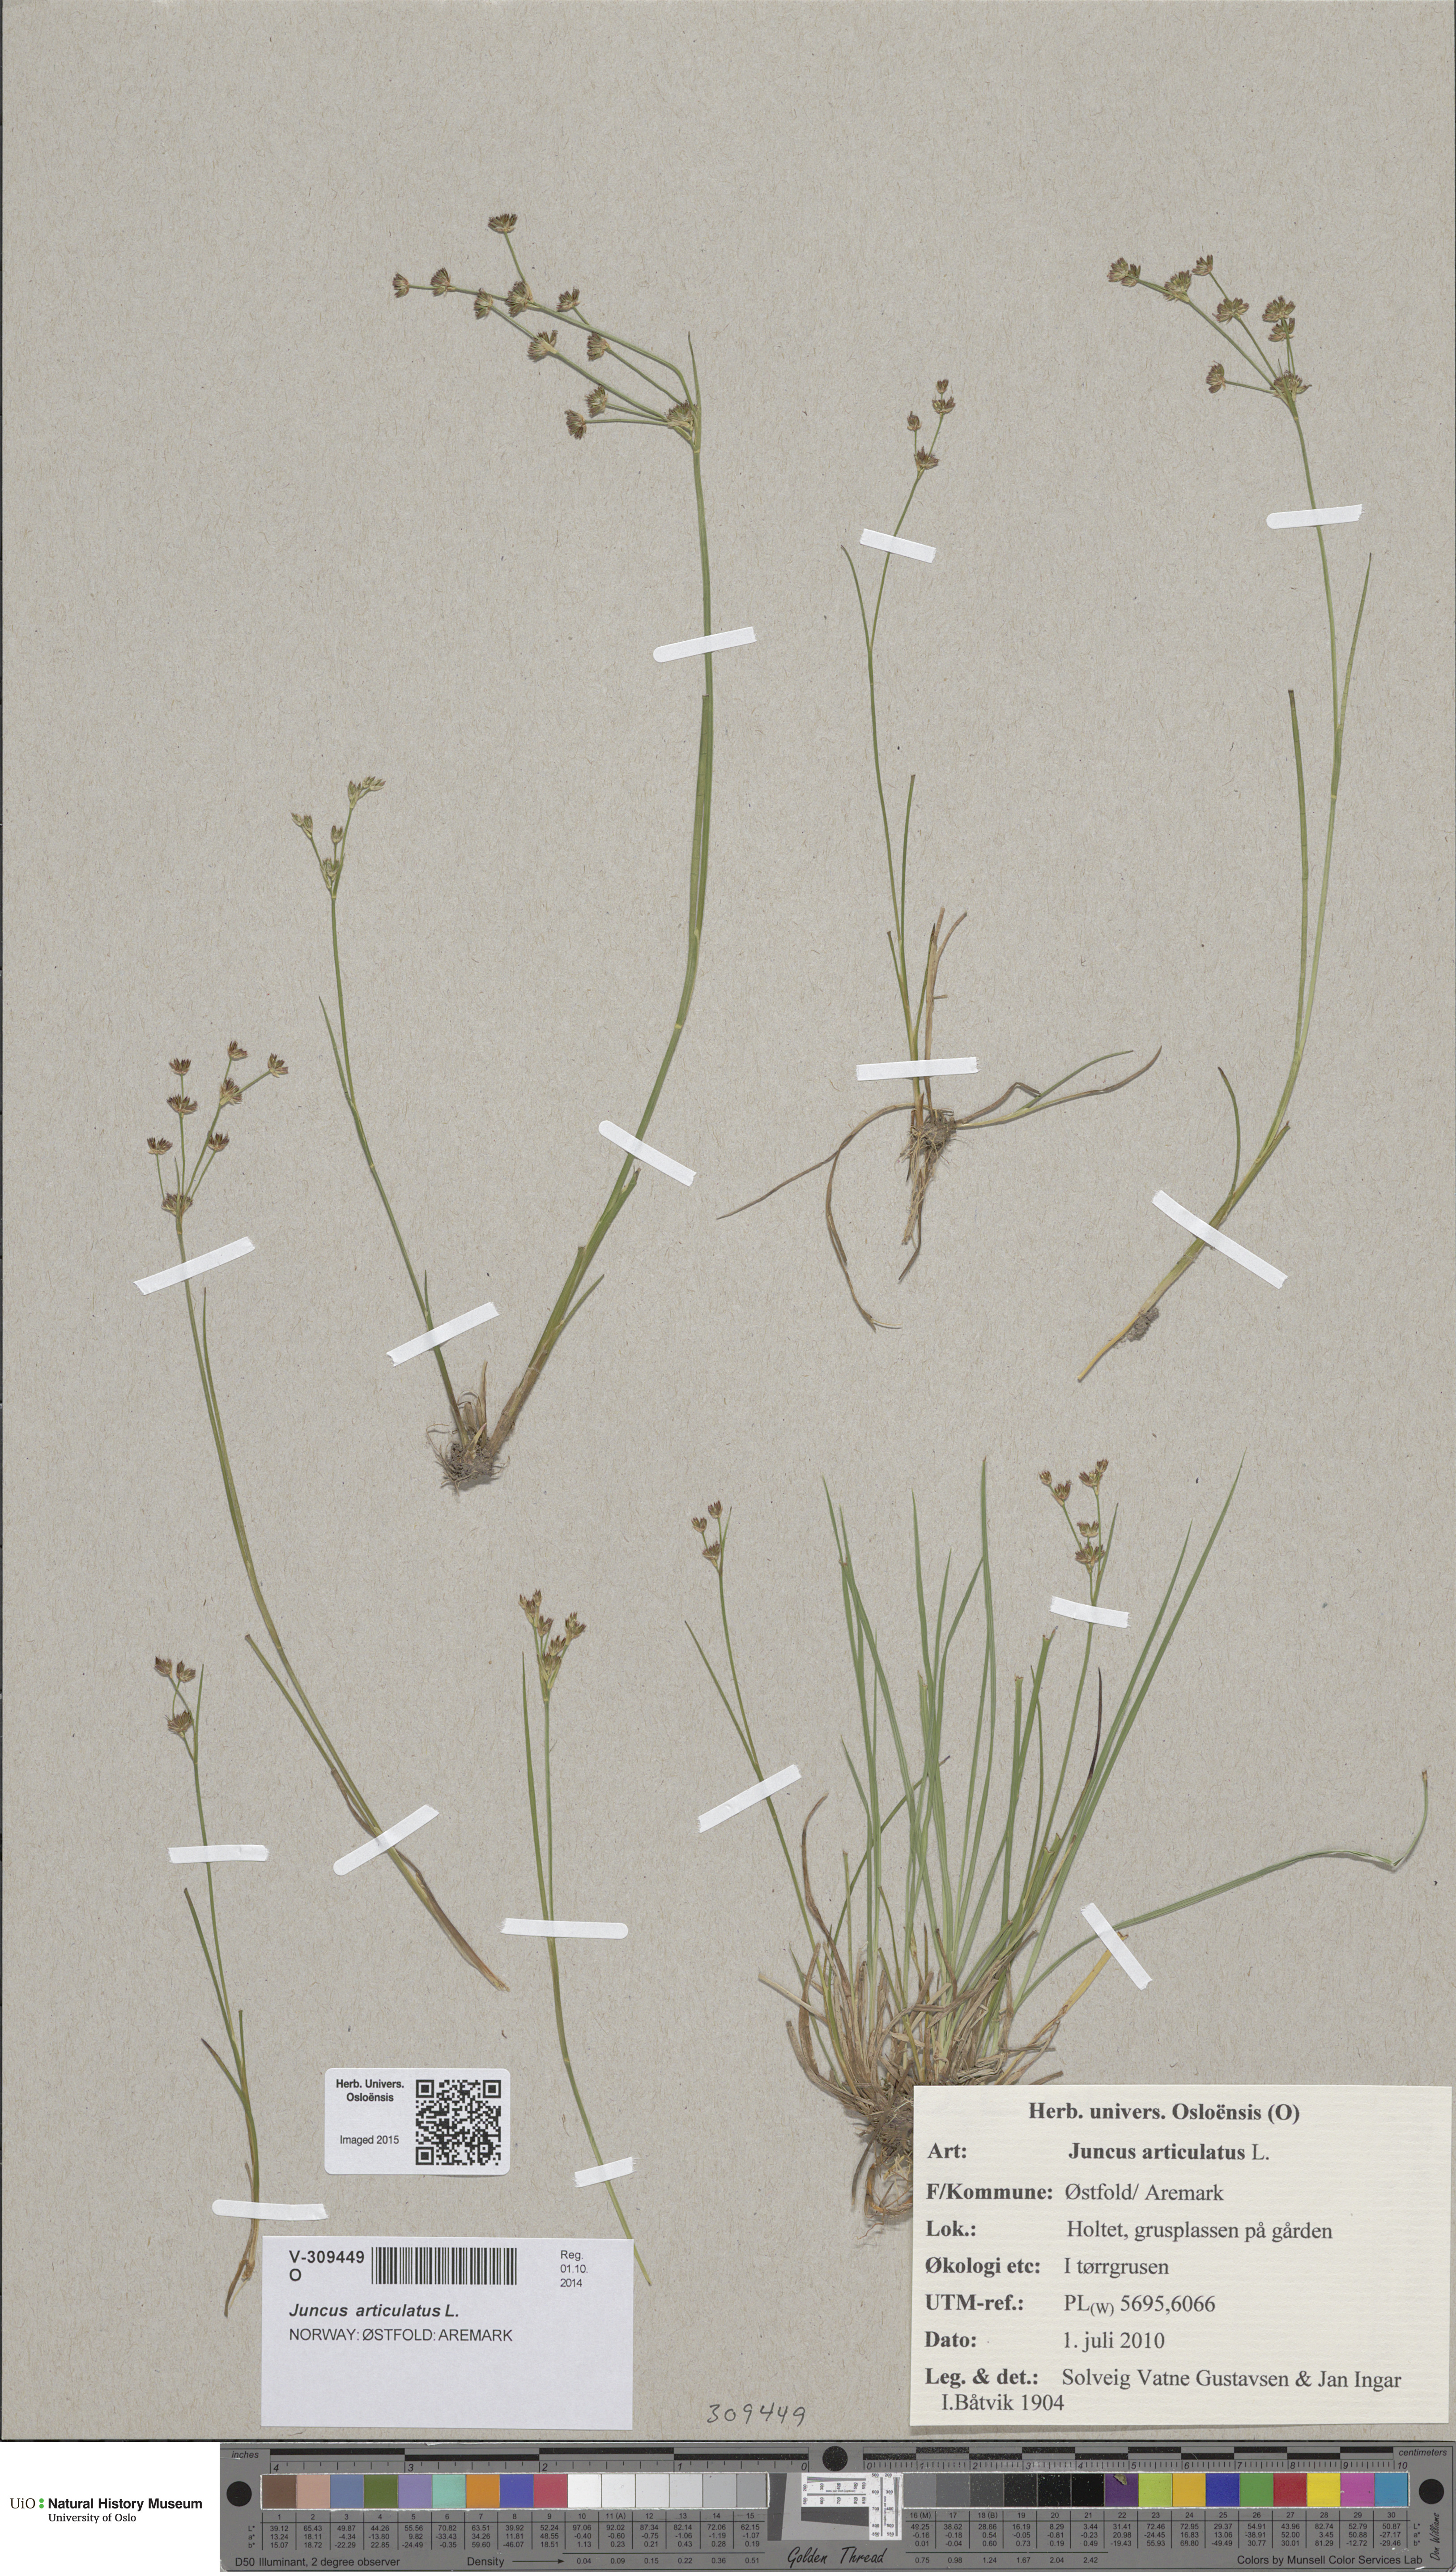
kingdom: Plantae
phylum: Tracheophyta
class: Liliopsida
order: Poales
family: Juncaceae
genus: Juncus
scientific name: Juncus articulatus
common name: Jointed rush
